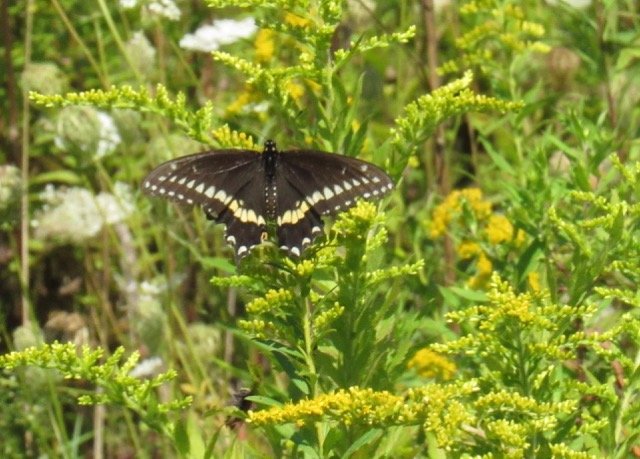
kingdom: Animalia
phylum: Arthropoda
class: Insecta
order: Lepidoptera
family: Papilionidae
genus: Papilio
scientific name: Papilio polyxenes
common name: Black Swallowtail
